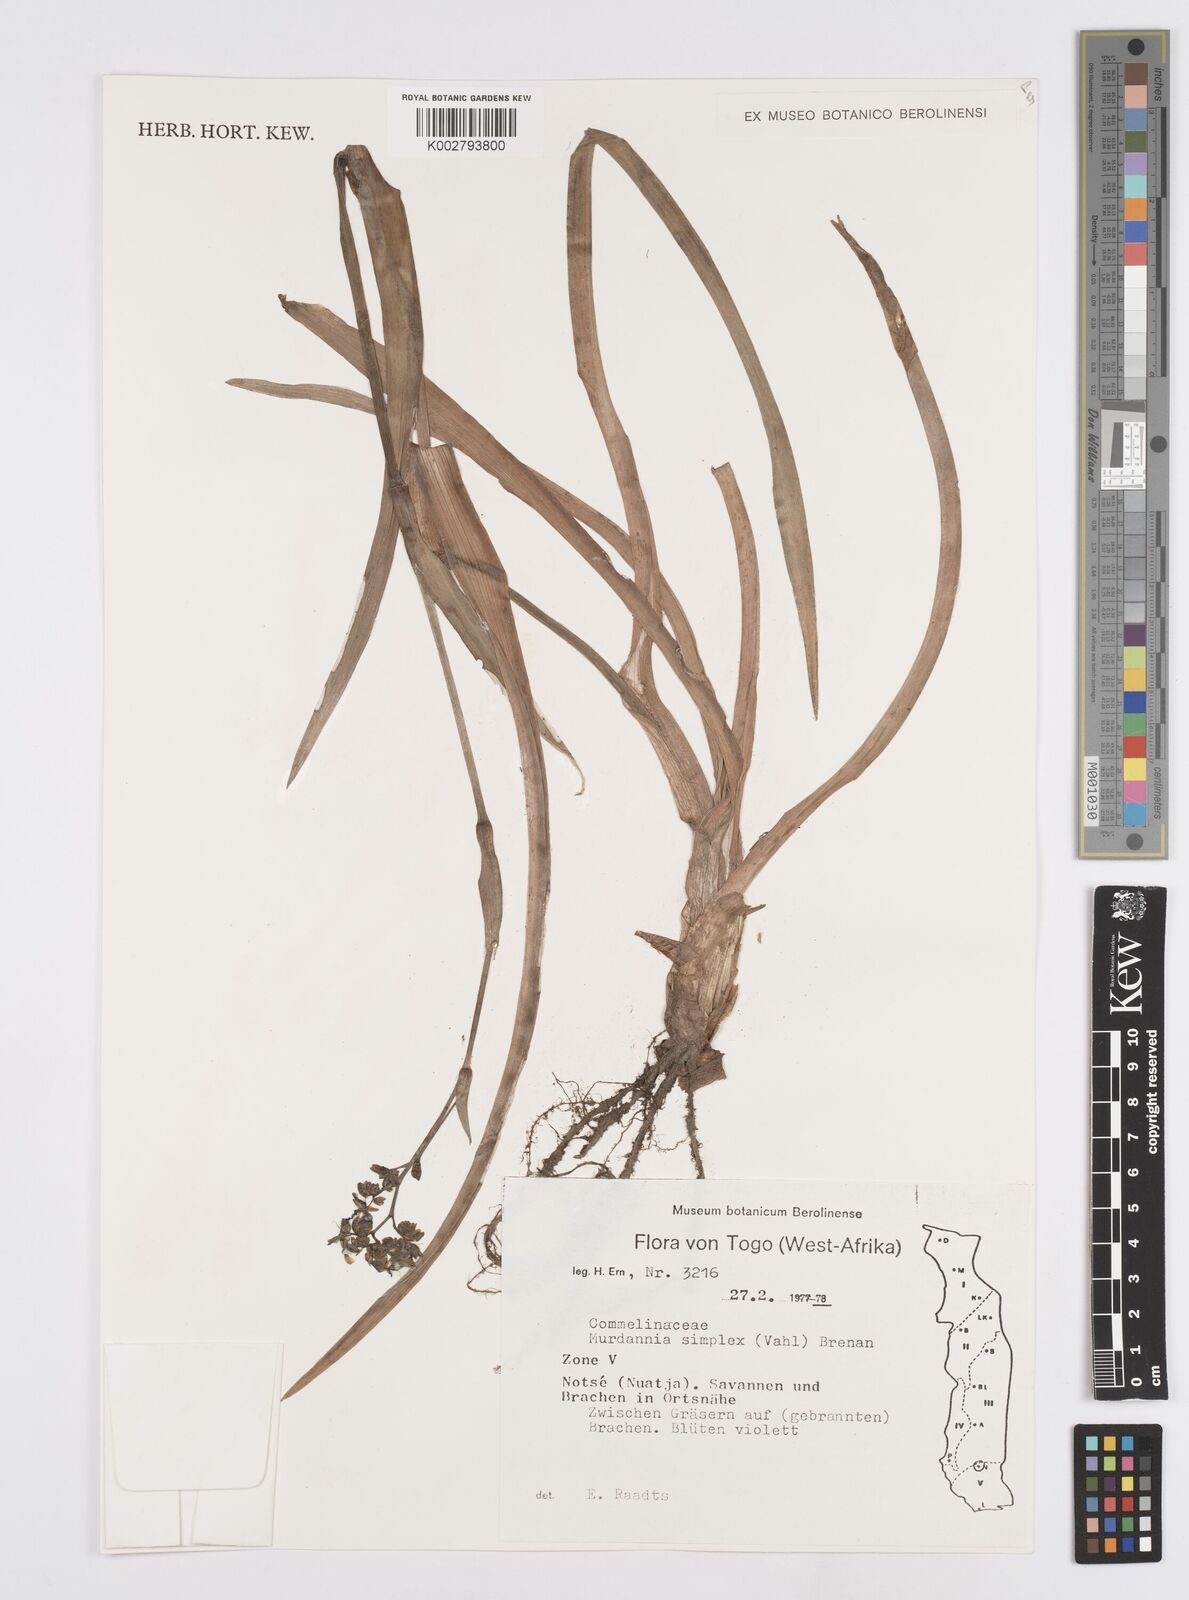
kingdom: Plantae
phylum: Tracheophyta
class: Liliopsida
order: Commelinales
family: Commelinaceae
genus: Murdannia
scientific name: Murdannia simplex
